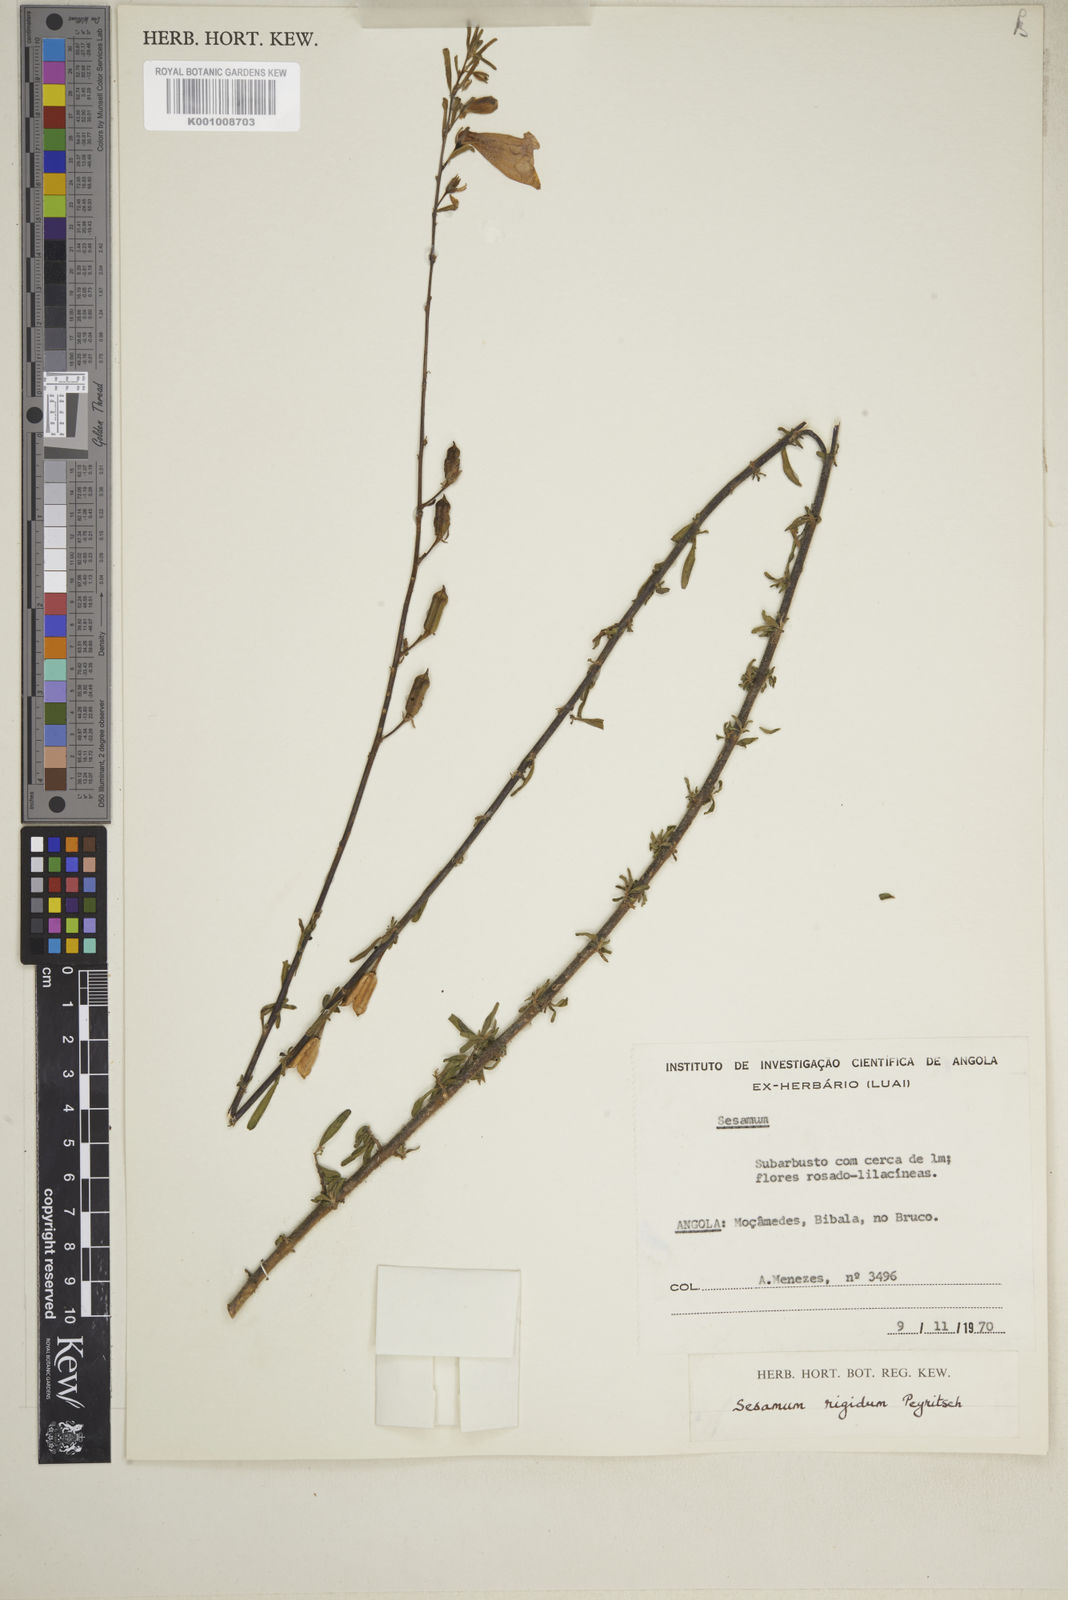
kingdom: Plantae
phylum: Tracheophyta
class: Magnoliopsida
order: Lamiales
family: Pedaliaceae
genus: Sesamum
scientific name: Sesamum rigidum
